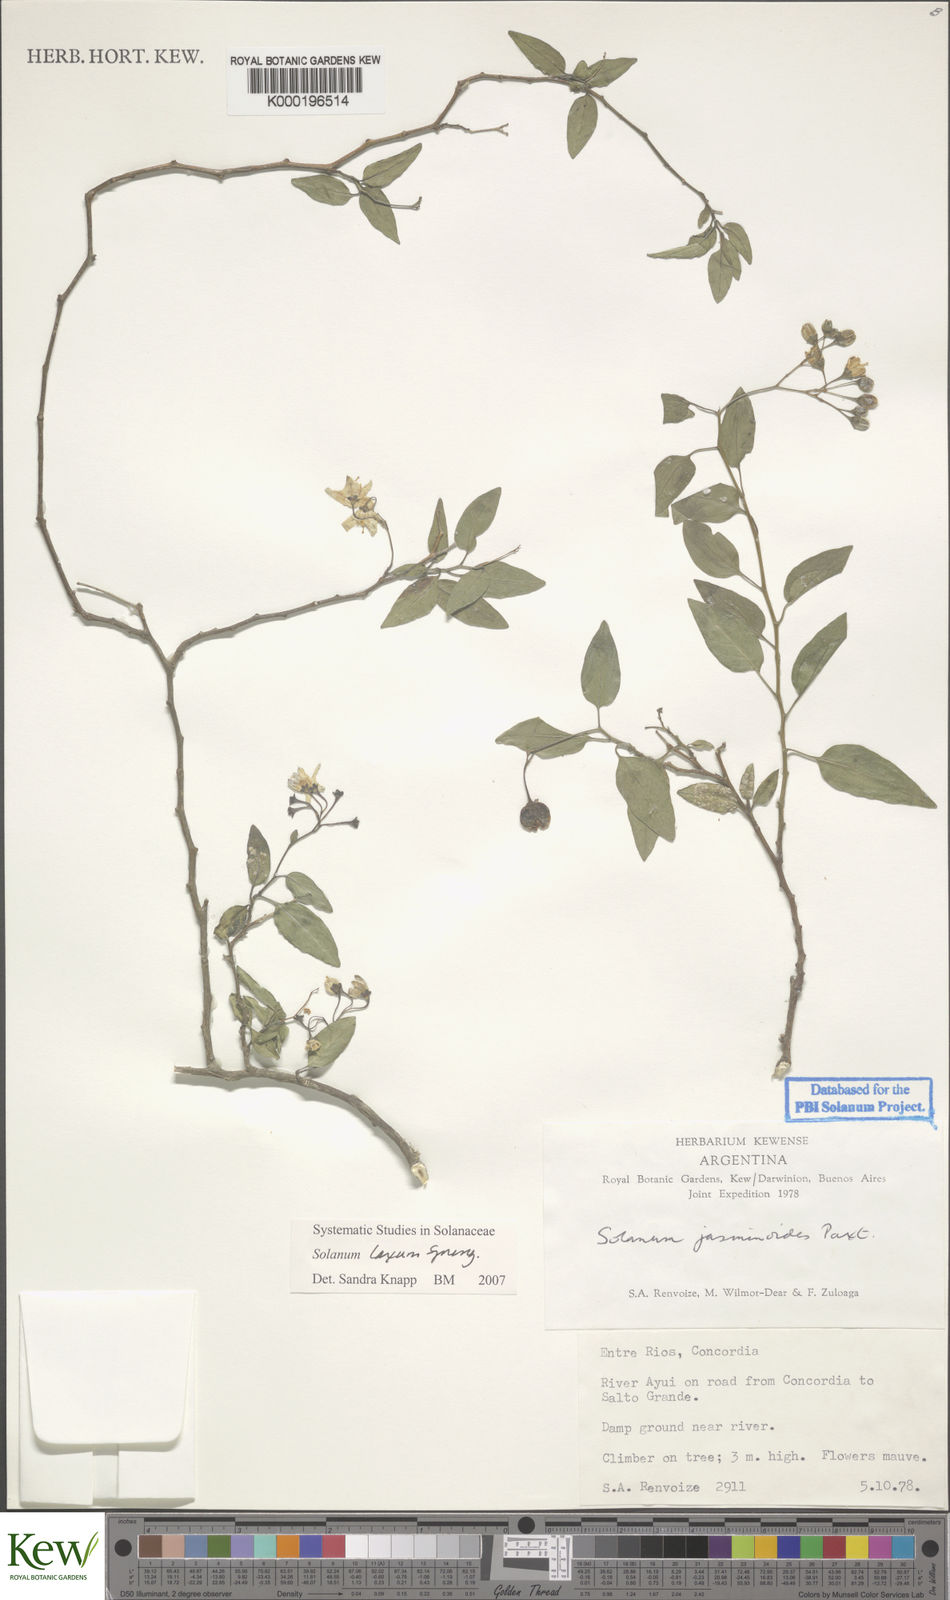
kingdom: Plantae
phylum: Tracheophyta
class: Magnoliopsida
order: Solanales
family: Solanaceae
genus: Solanum
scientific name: Solanum laxum
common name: Nightshade
